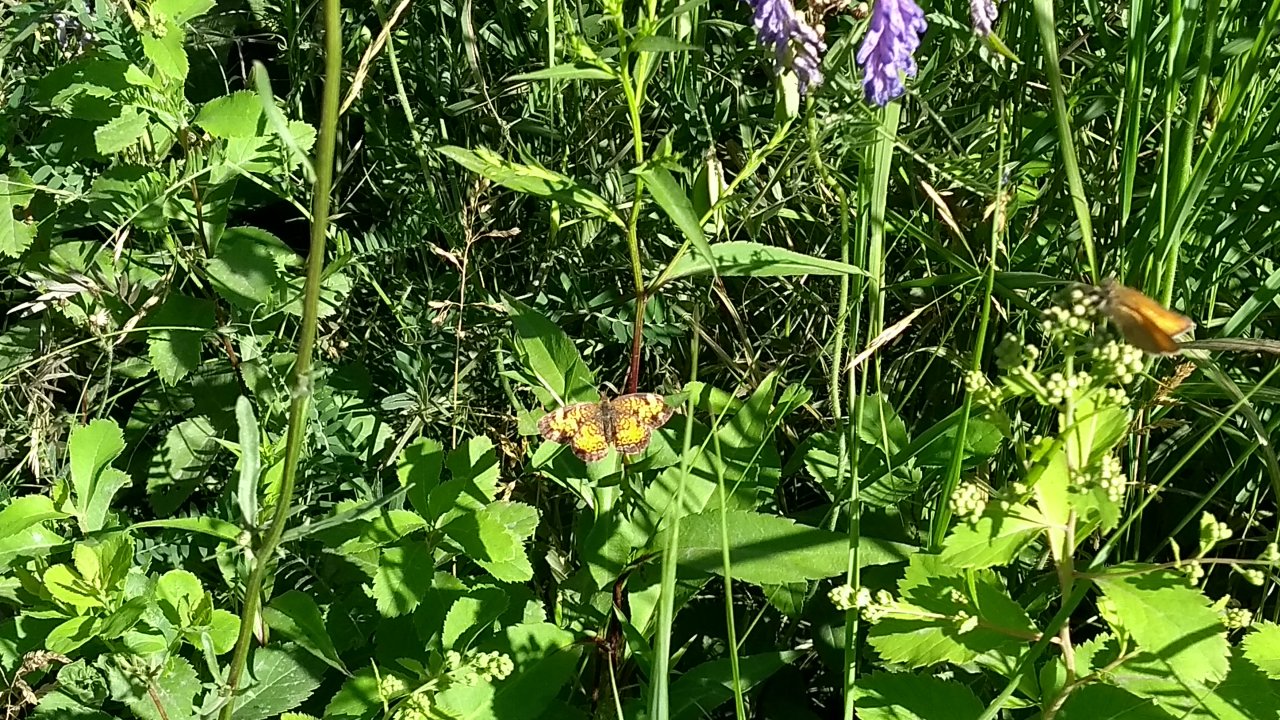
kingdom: Animalia
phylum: Arthropoda
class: Insecta
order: Lepidoptera
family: Nymphalidae
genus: Phyciodes
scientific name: Phyciodes tharos
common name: Northern Crescent
